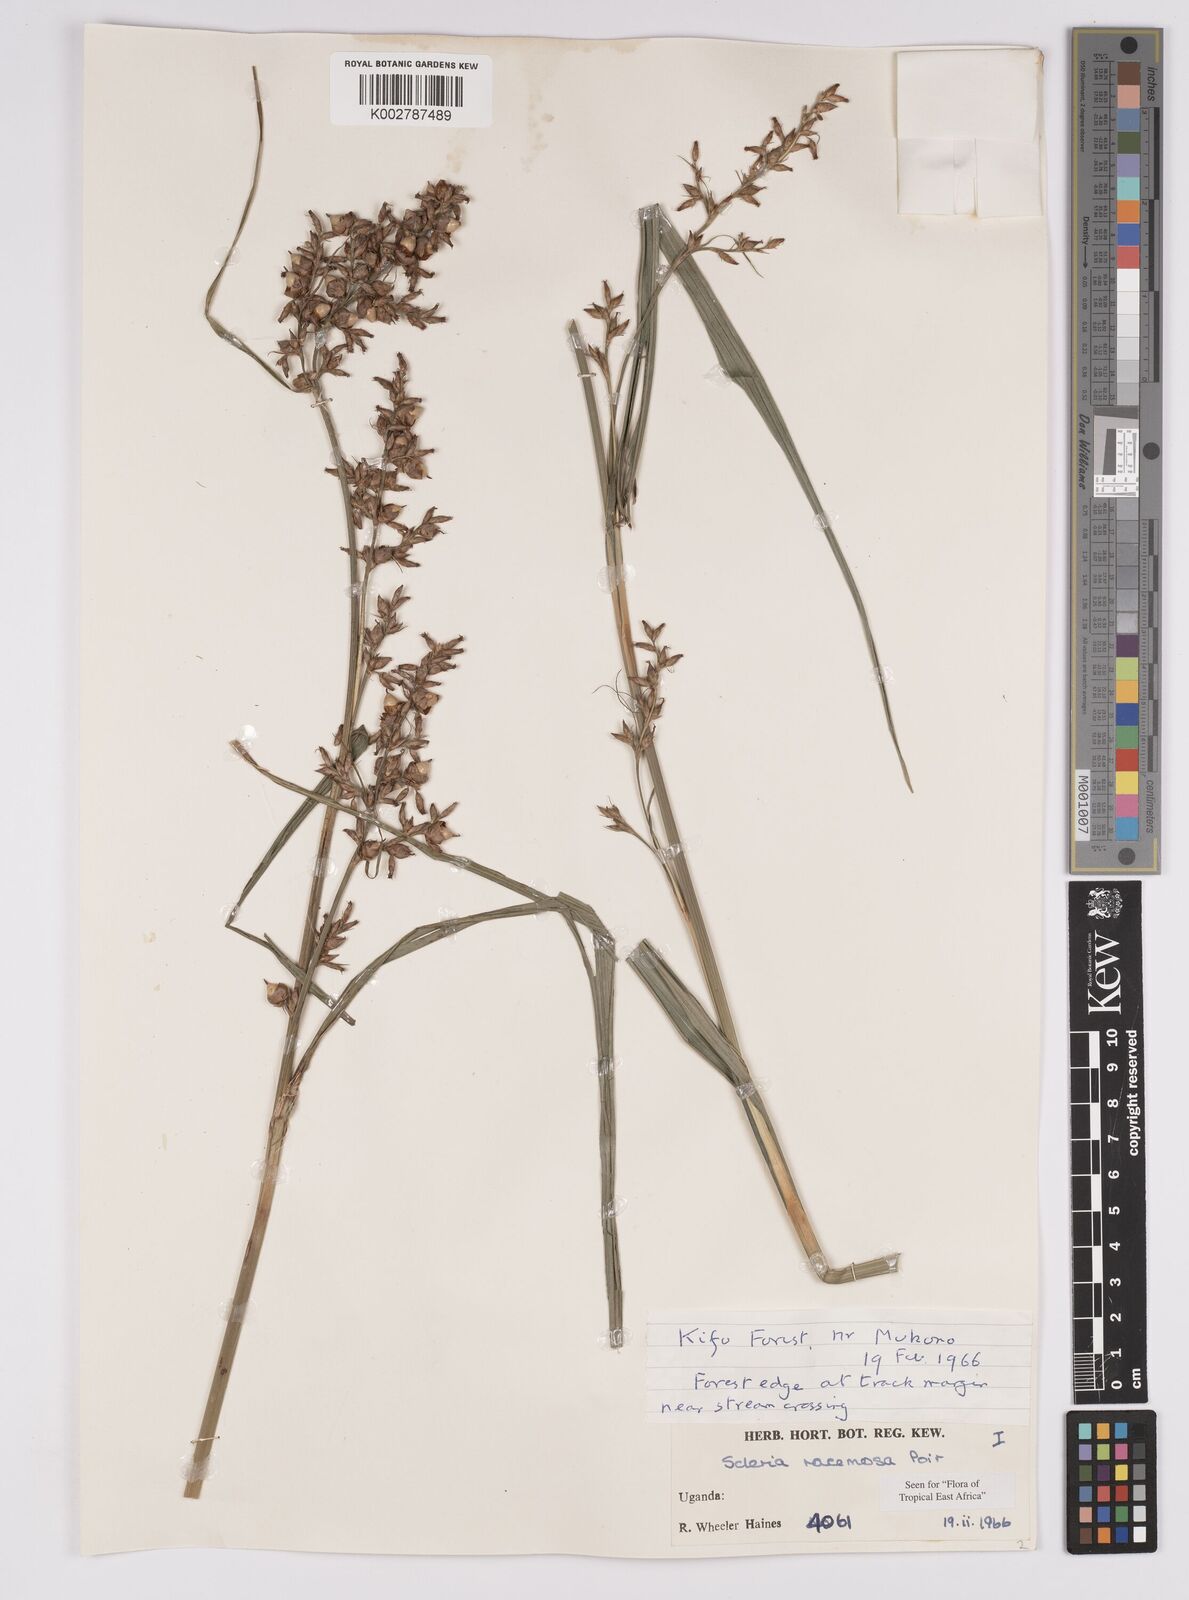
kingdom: Plantae
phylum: Tracheophyta
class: Liliopsida
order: Poales
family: Cyperaceae
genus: Scleria
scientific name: Scleria racemosa
